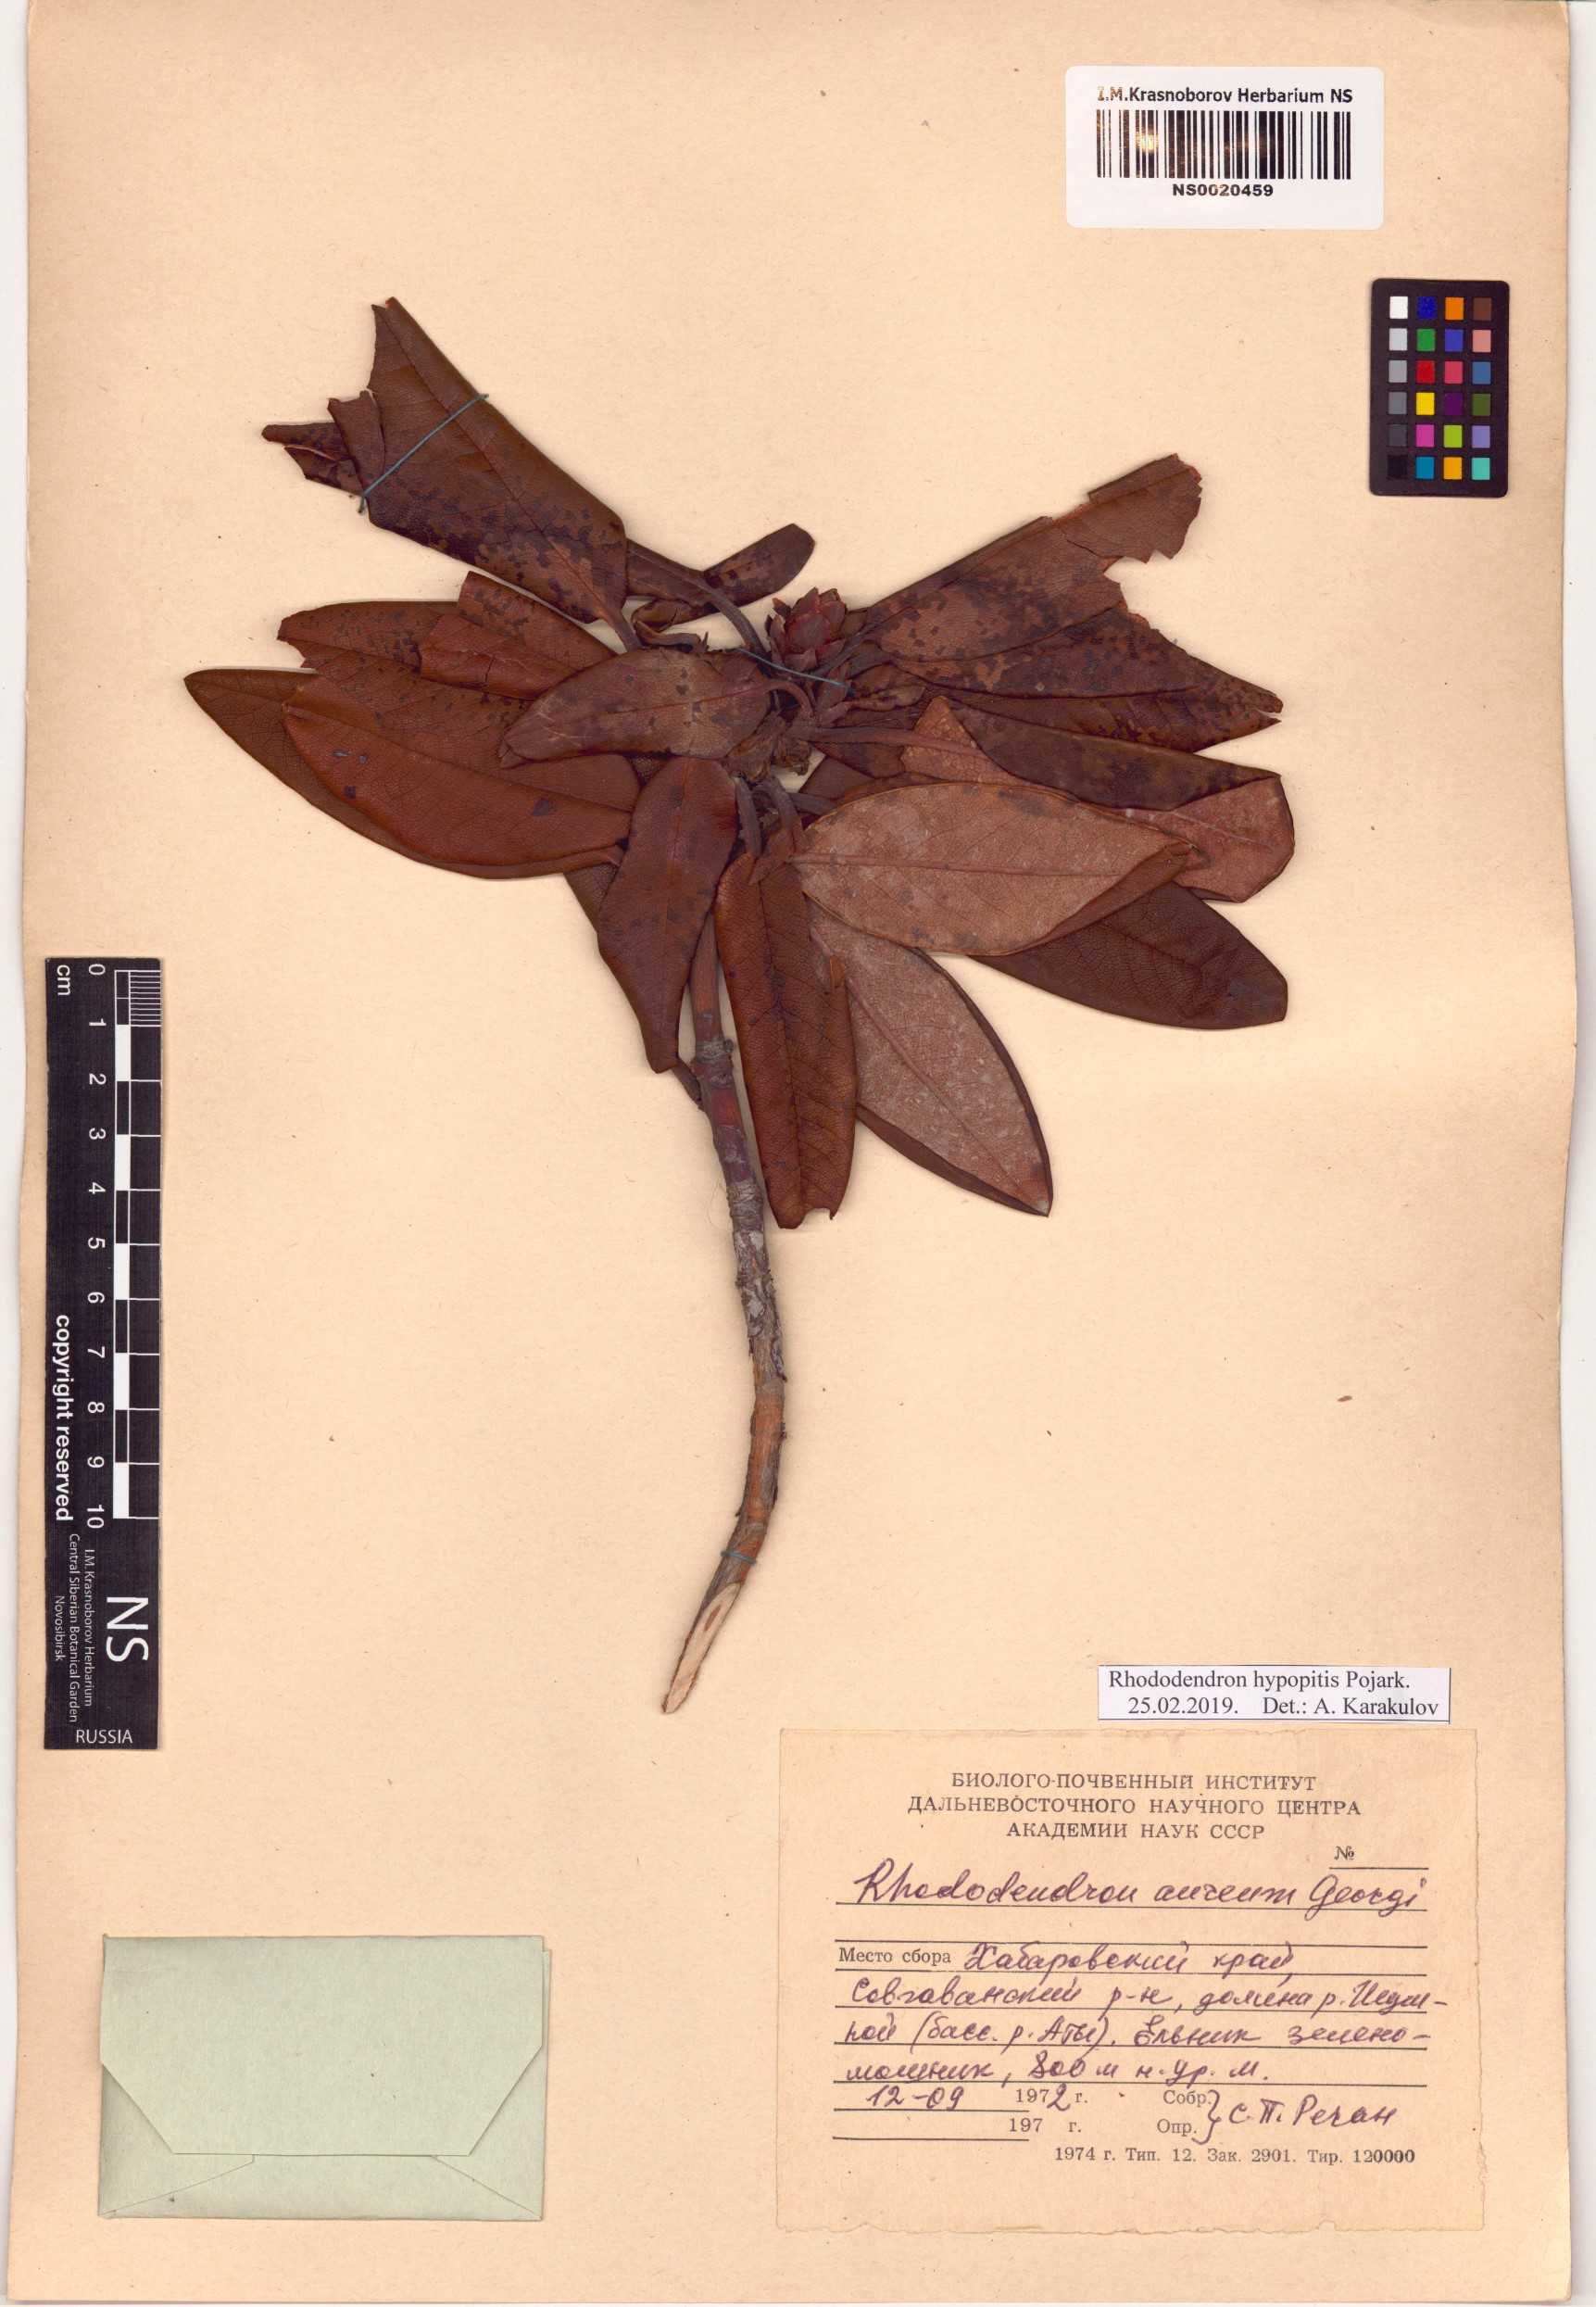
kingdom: Plantae
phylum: Tracheophyta
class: Magnoliopsida
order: Ericales
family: Ericaceae
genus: Rhododendron
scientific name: Rhododendron aureum
